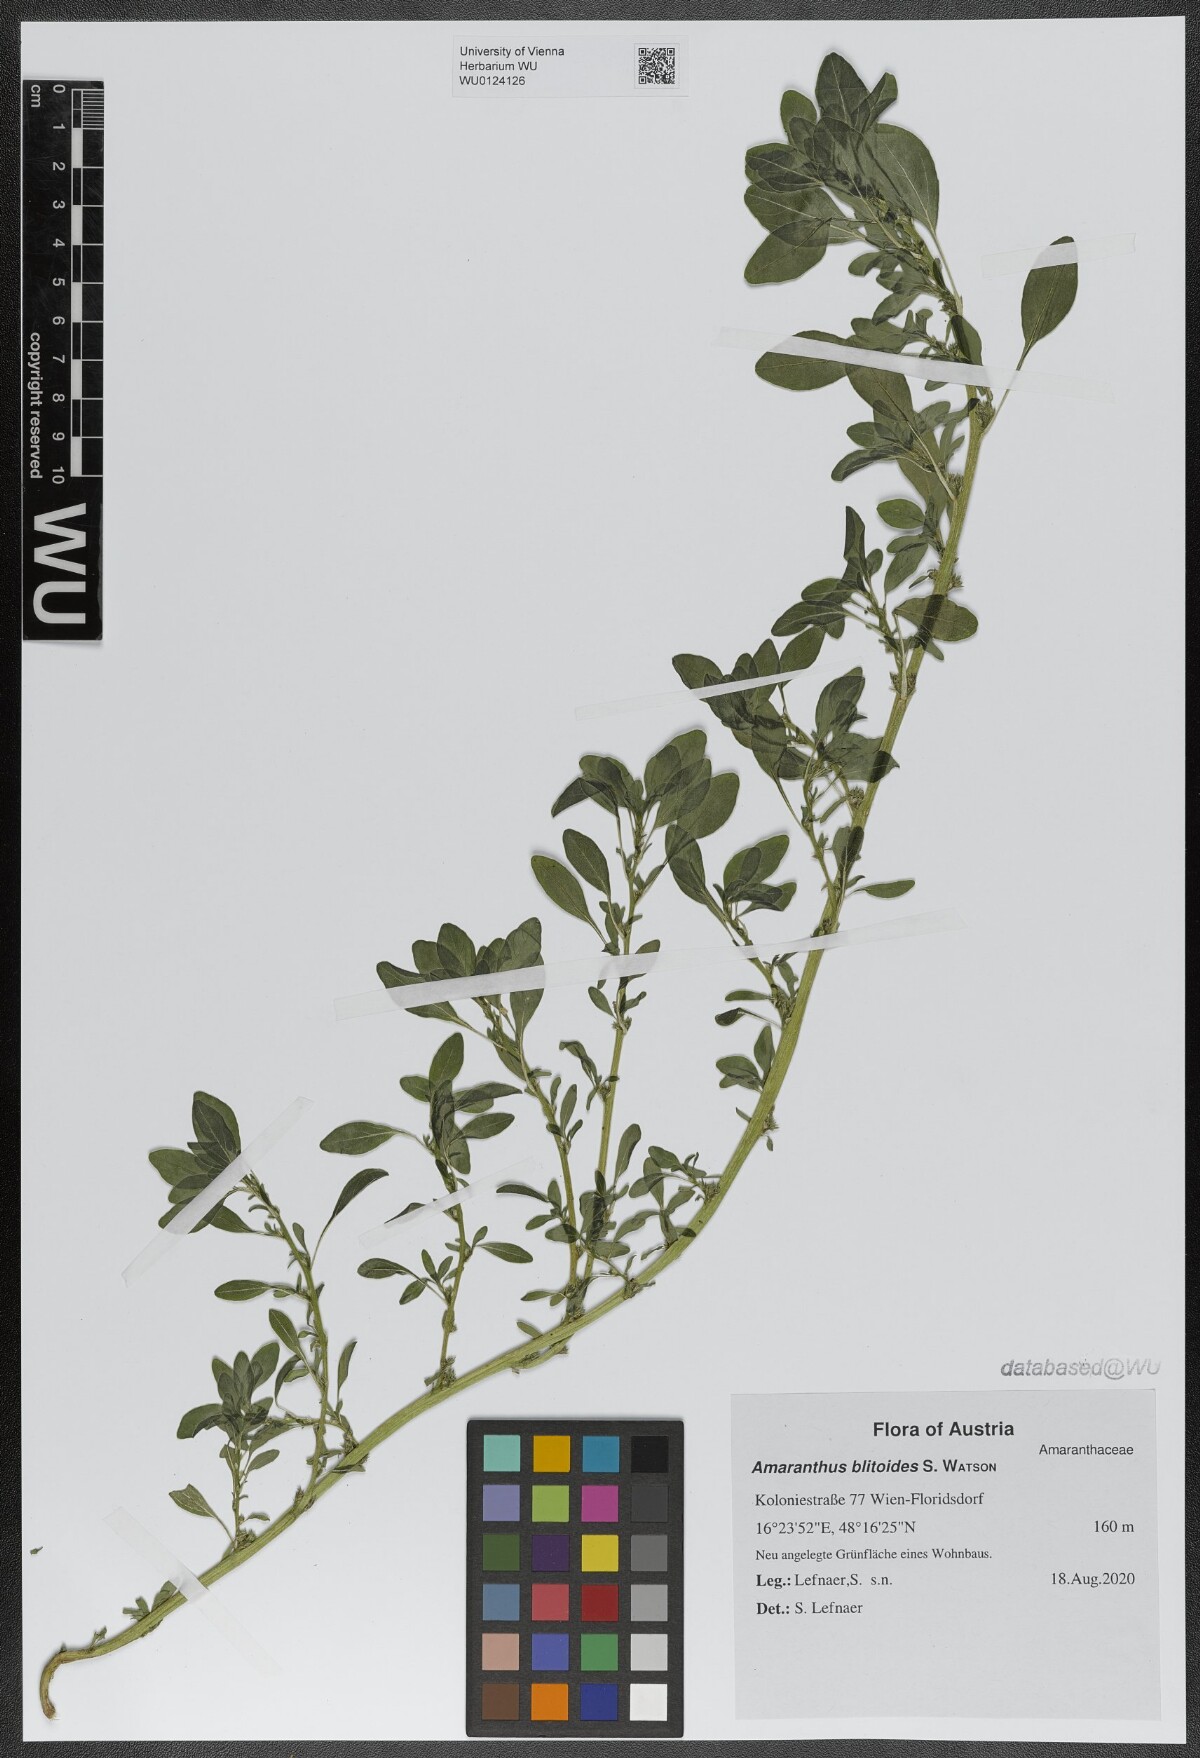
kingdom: Plantae
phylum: Tracheophyta
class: Magnoliopsida
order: Caryophyllales
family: Amaranthaceae
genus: Amaranthus
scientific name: Amaranthus blitoides
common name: Prostrate pigweed
